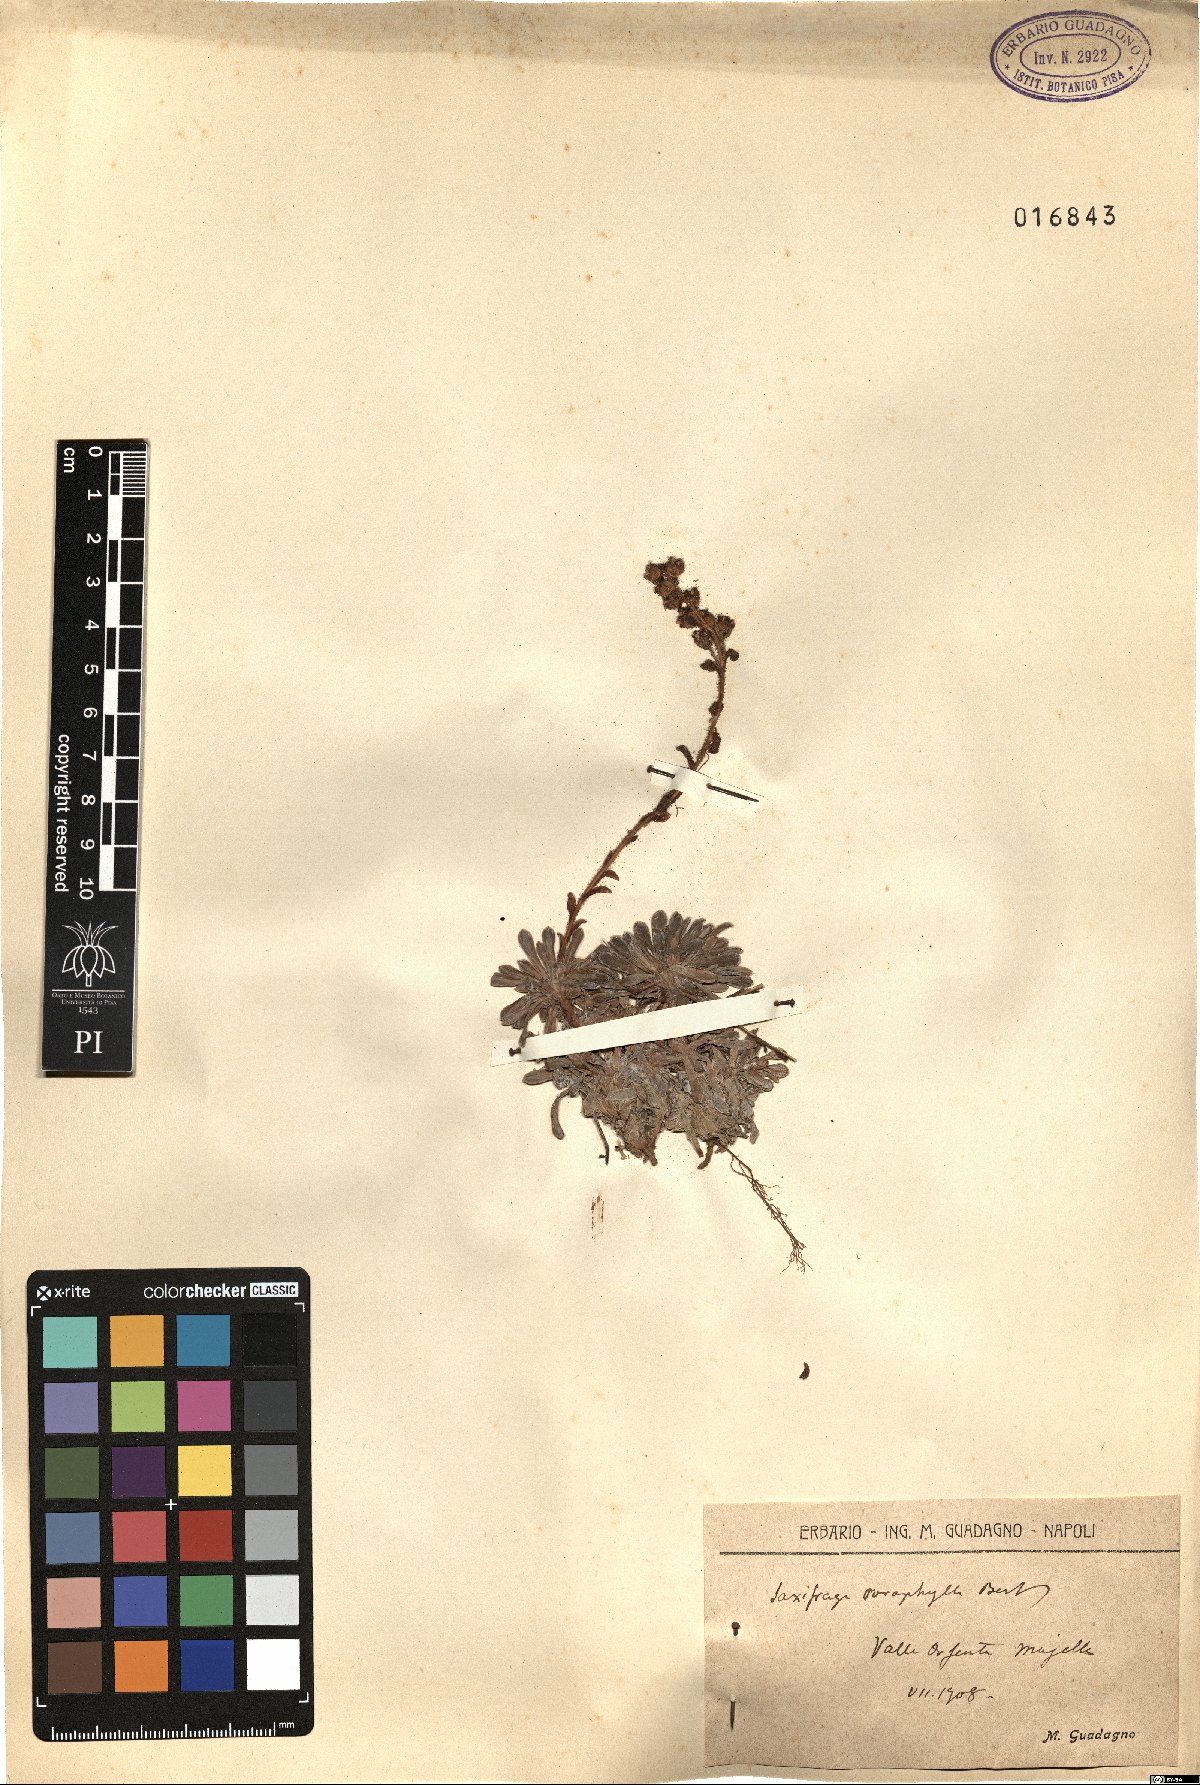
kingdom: Plantae
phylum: Tracheophyta
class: Magnoliopsida
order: Saxifragales
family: Saxifragaceae
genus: Saxifraga
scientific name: Saxifraga porophylla
